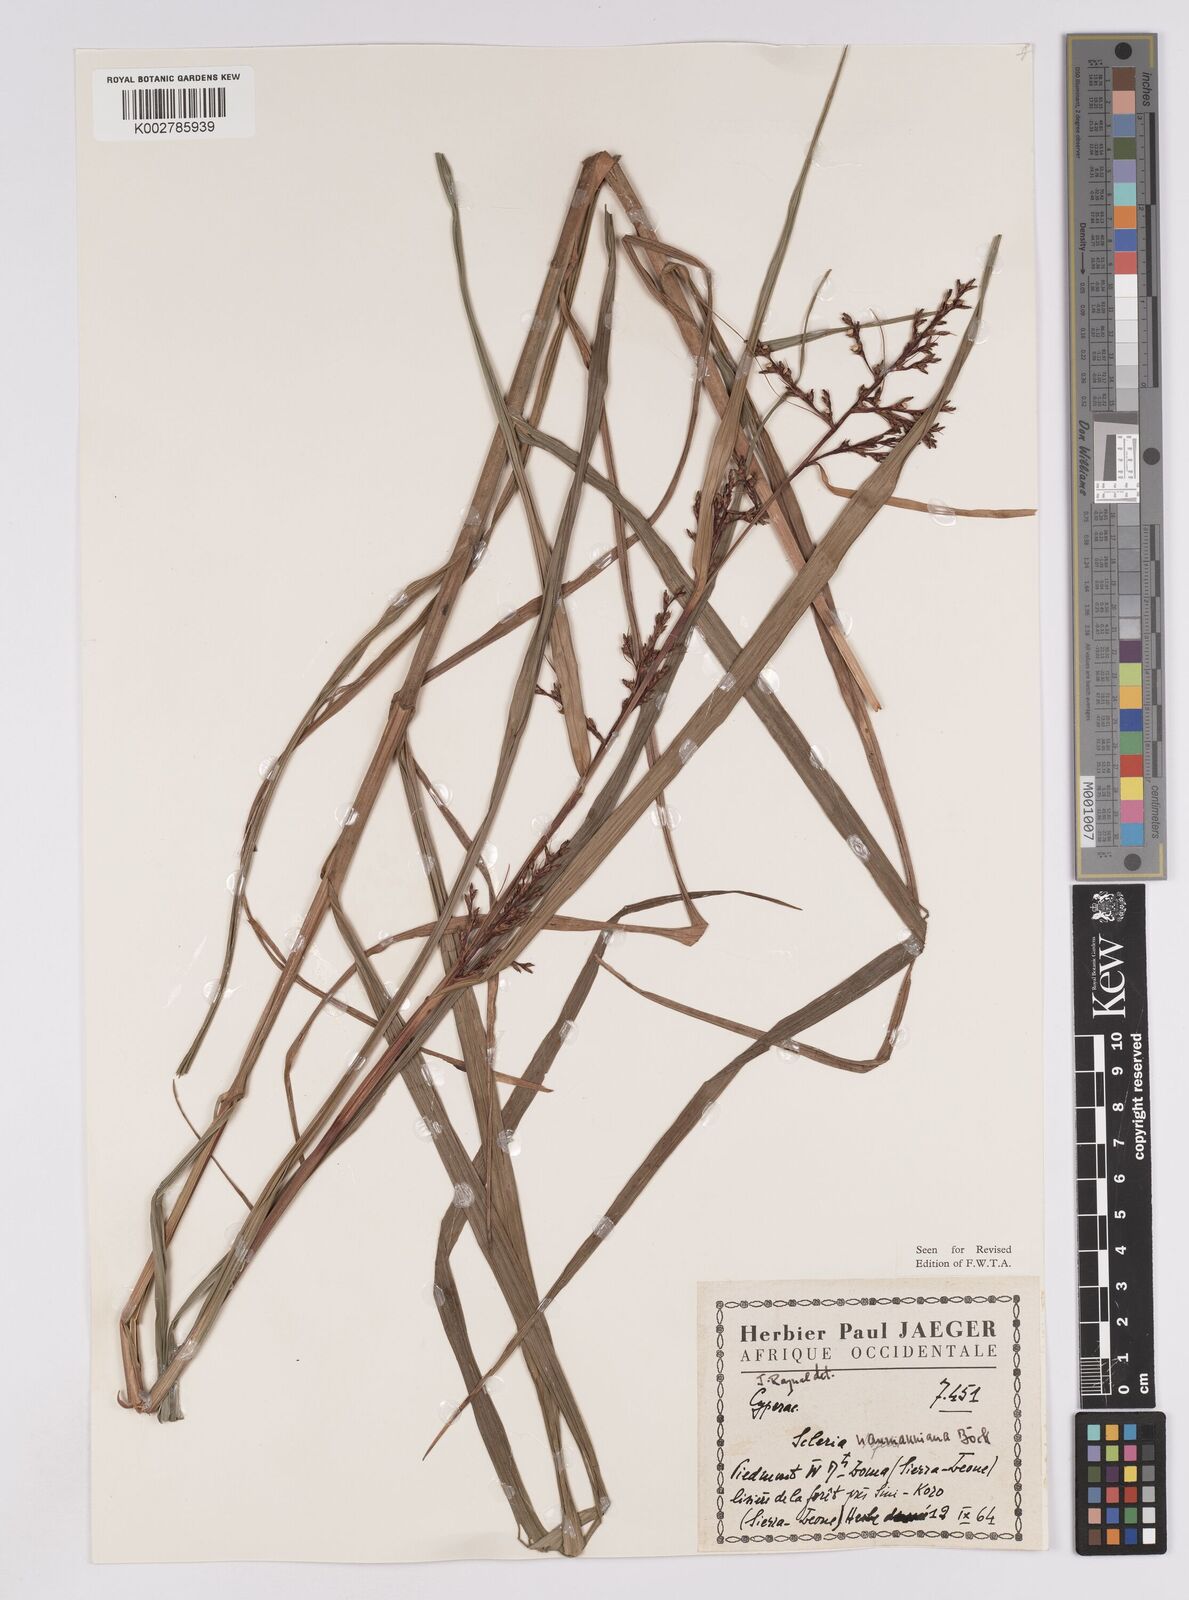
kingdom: Plantae
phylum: Tracheophyta
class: Liliopsida
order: Poales
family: Cyperaceae
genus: Scleria
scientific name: Scleria naumanniana
